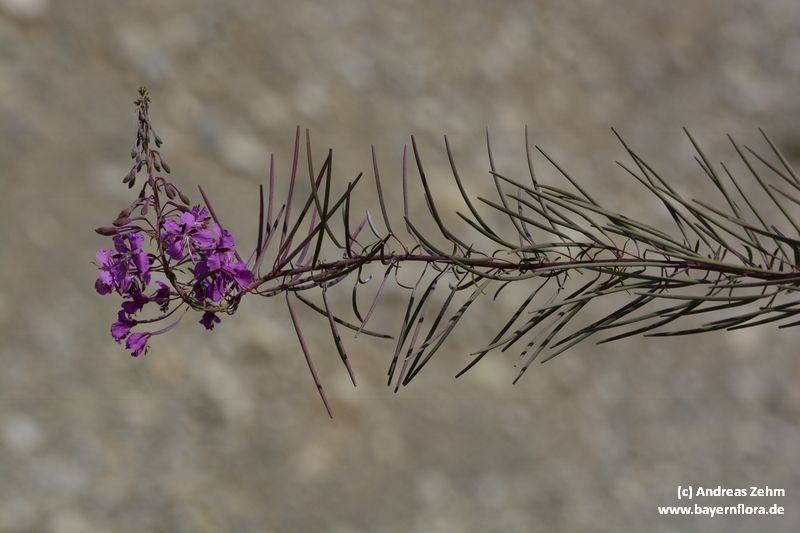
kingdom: Plantae
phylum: Tracheophyta
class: Magnoliopsida
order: Myrtales
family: Onagraceae
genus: Chamaenerion
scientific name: Chamaenerion angustifolium
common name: Fireweed
